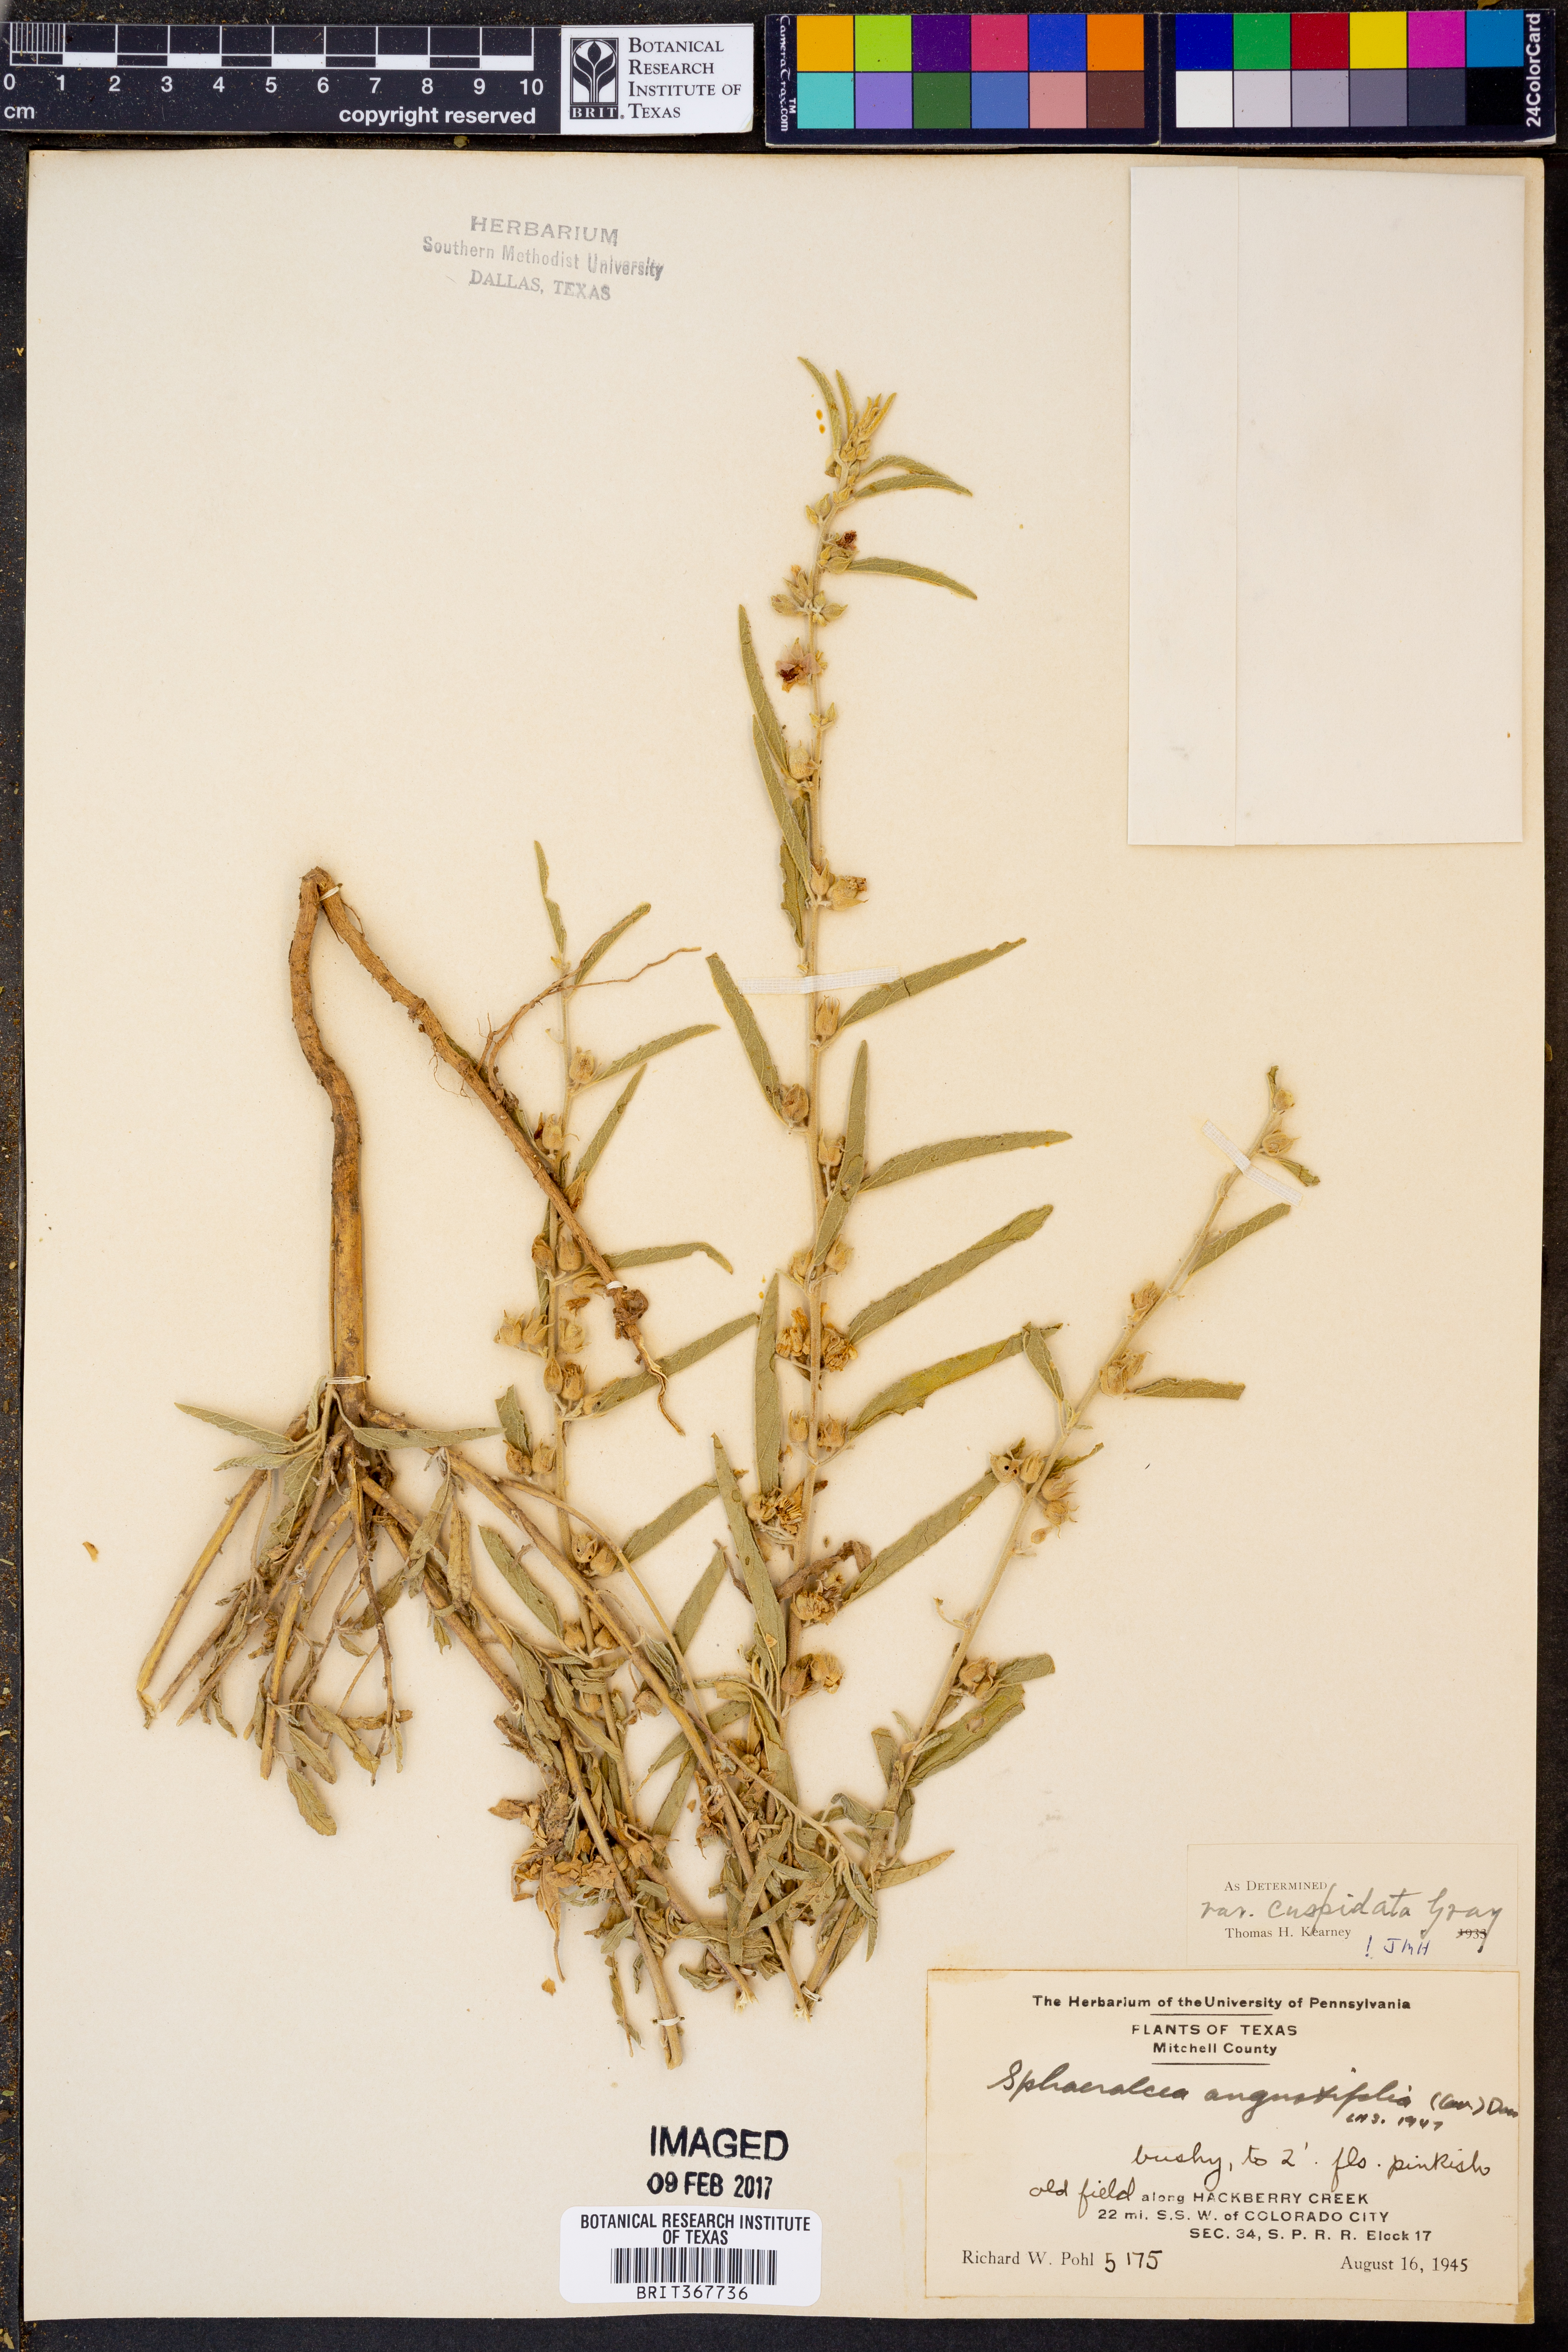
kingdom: Plantae
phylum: Tracheophyta
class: Magnoliopsida
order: Malvales
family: Malvaceae
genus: Sphaeralcea
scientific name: Sphaeralcea angustifolia
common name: Copper globe-mallow
